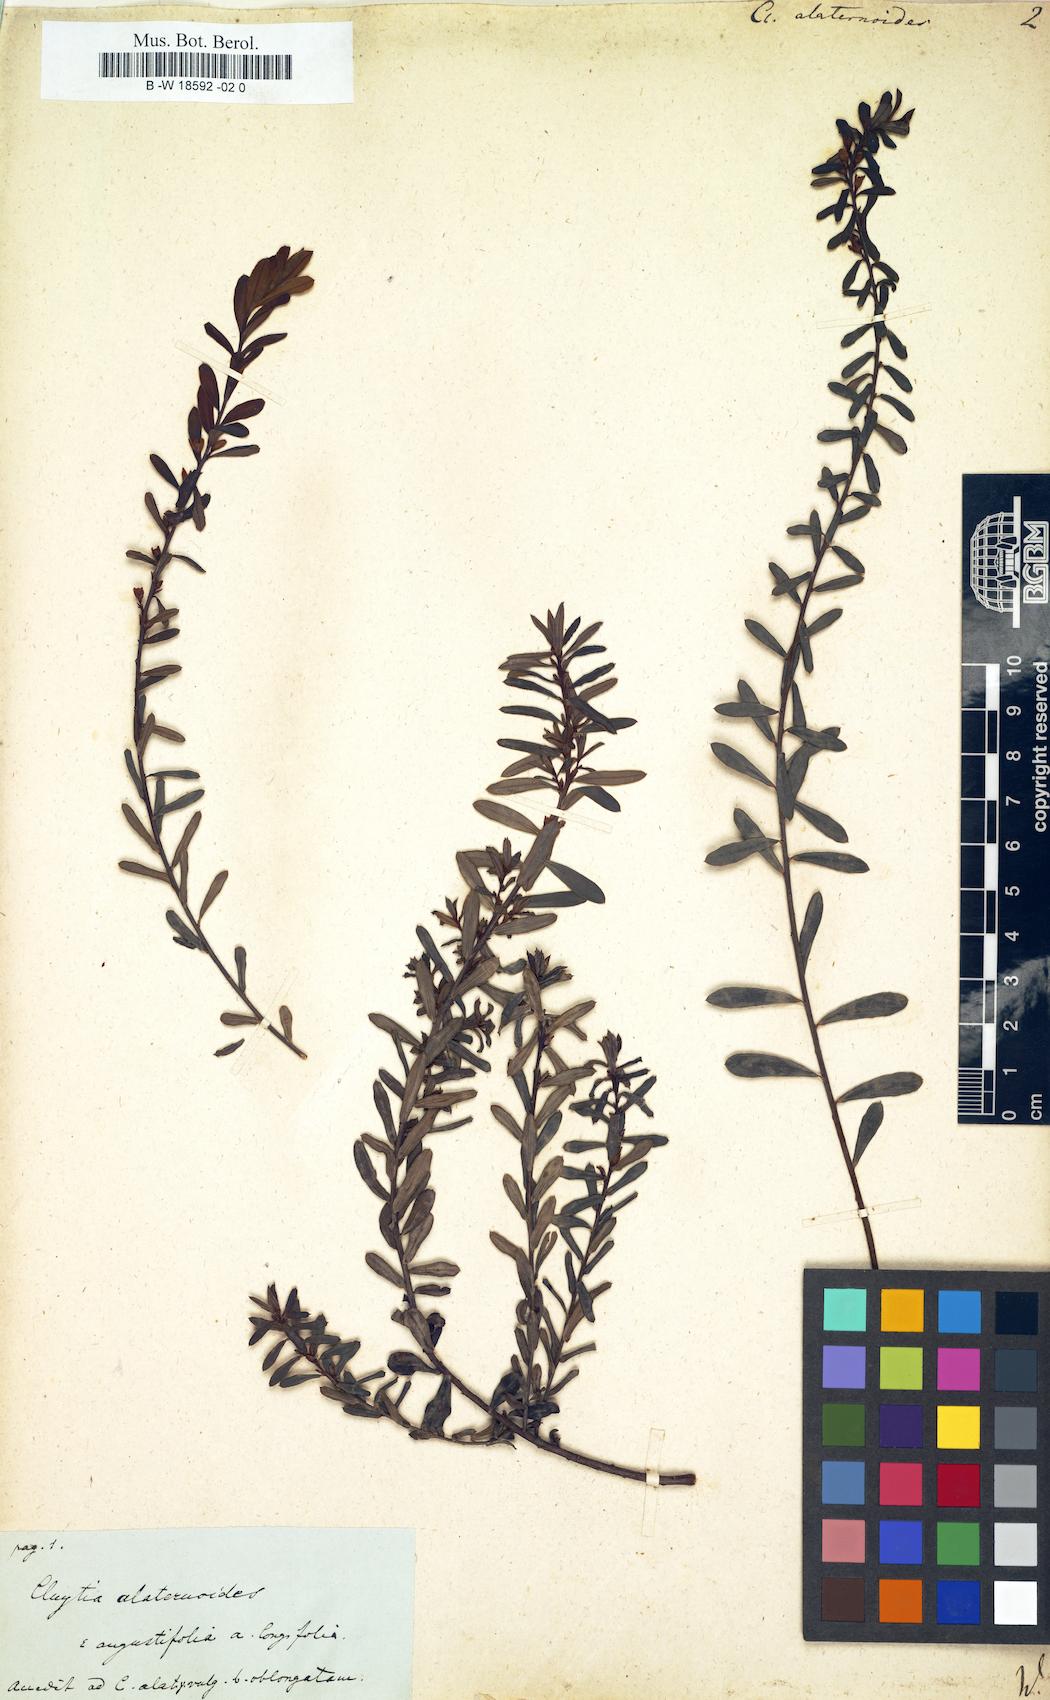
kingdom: Plantae
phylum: Tracheophyta
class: Magnoliopsida
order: Malpighiales
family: Peraceae
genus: Clutia
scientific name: Clutia
